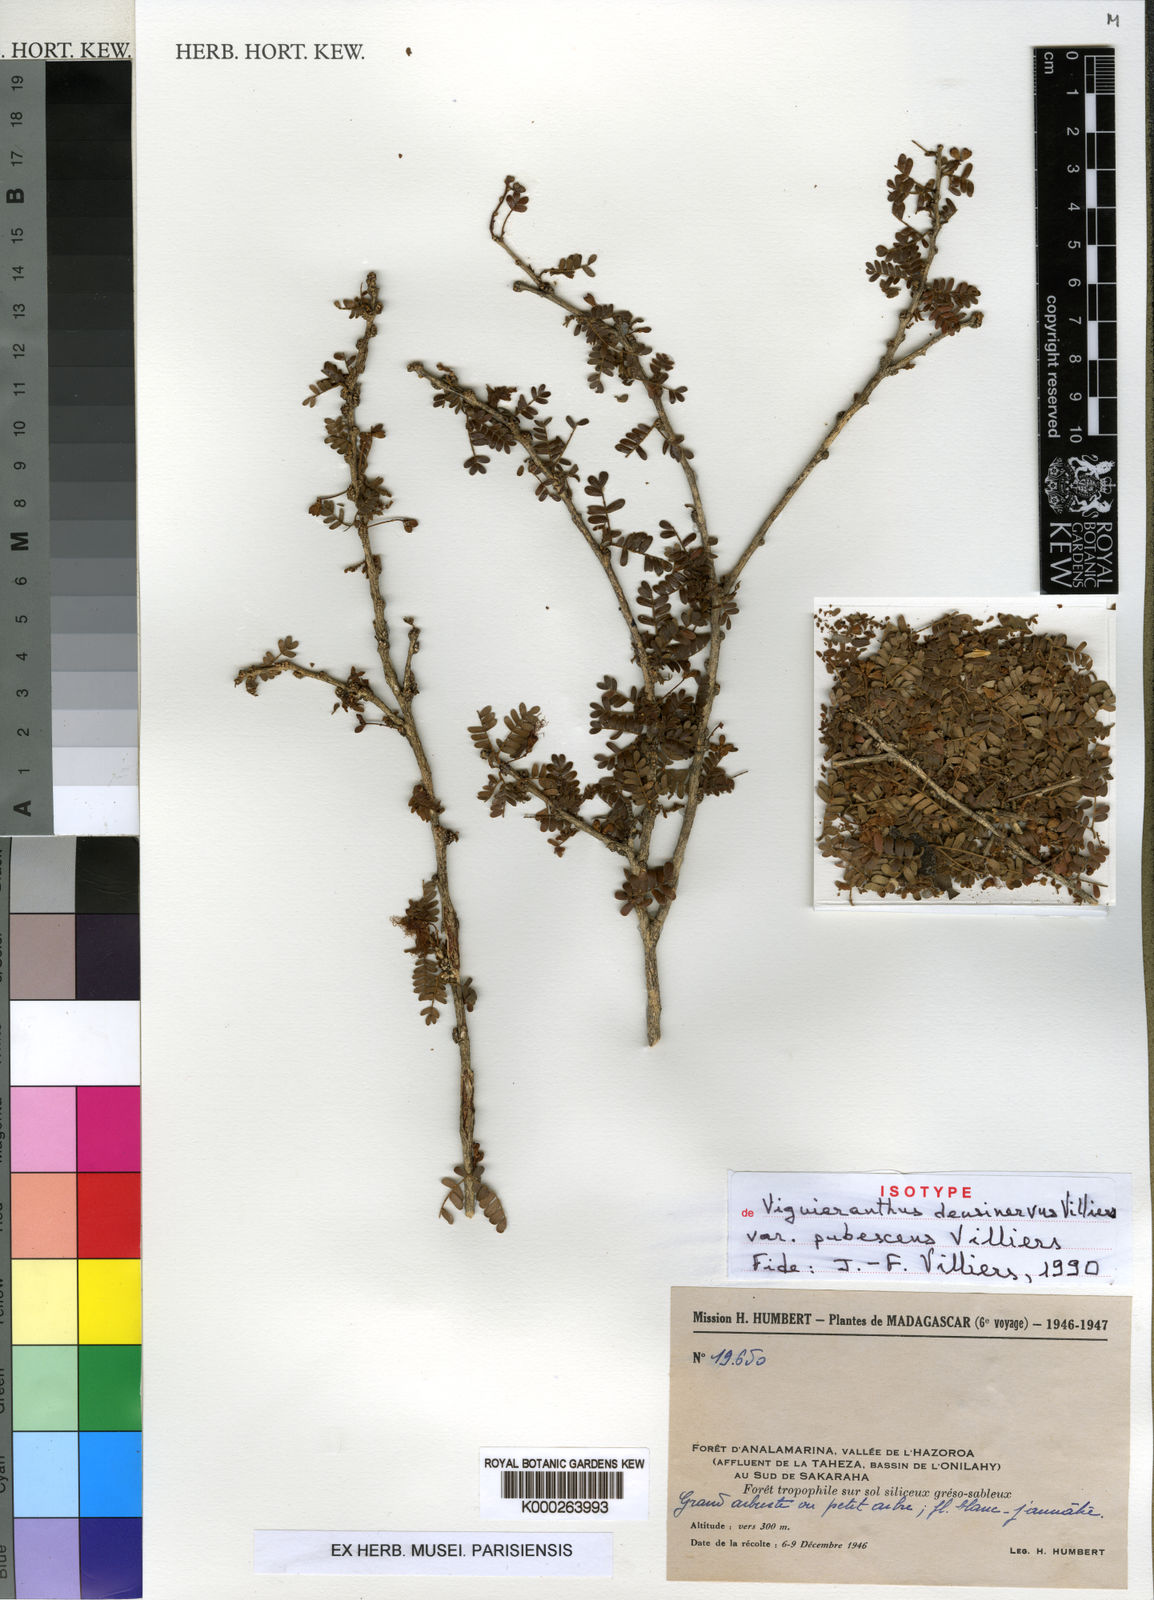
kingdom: Plantae
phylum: Tracheophyta
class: Magnoliopsida
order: Fabales
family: Fabaceae
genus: Viguieranthus
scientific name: Viguieranthus
